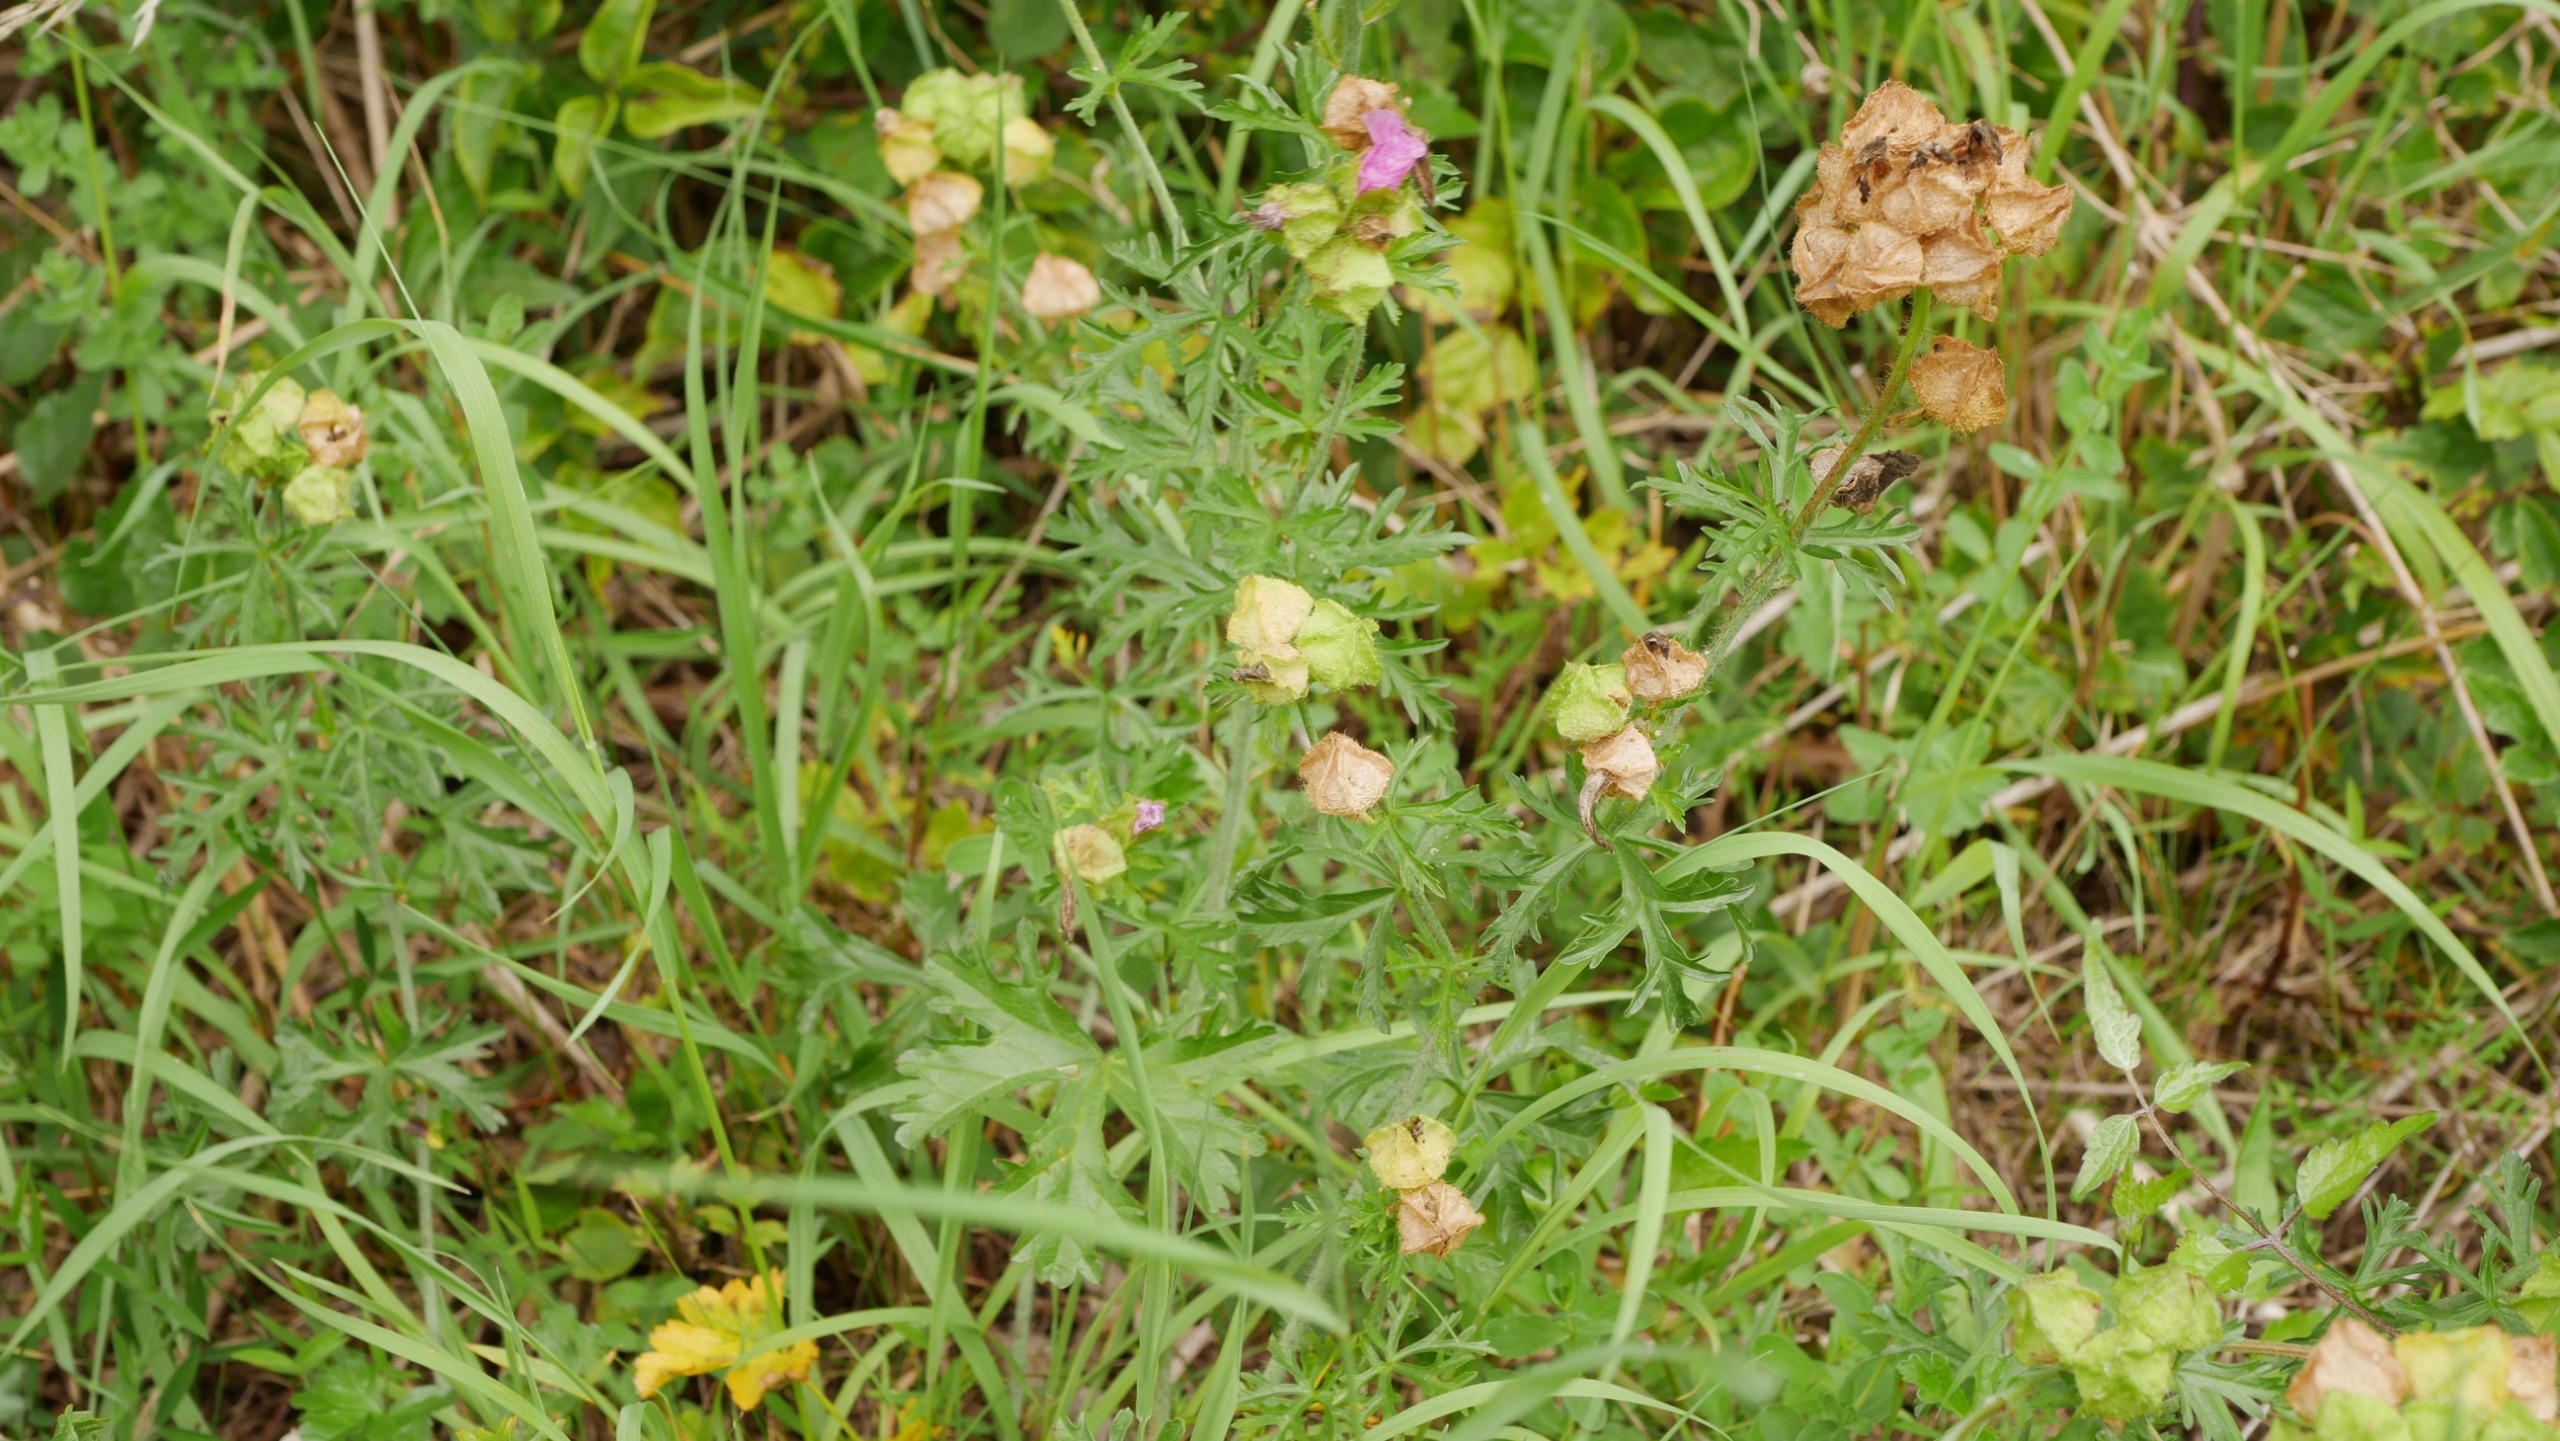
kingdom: Plantae
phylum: Tracheophyta
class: Magnoliopsida
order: Malvales
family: Malvaceae
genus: Malva
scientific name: Malva moschata
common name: Moskus-katost
